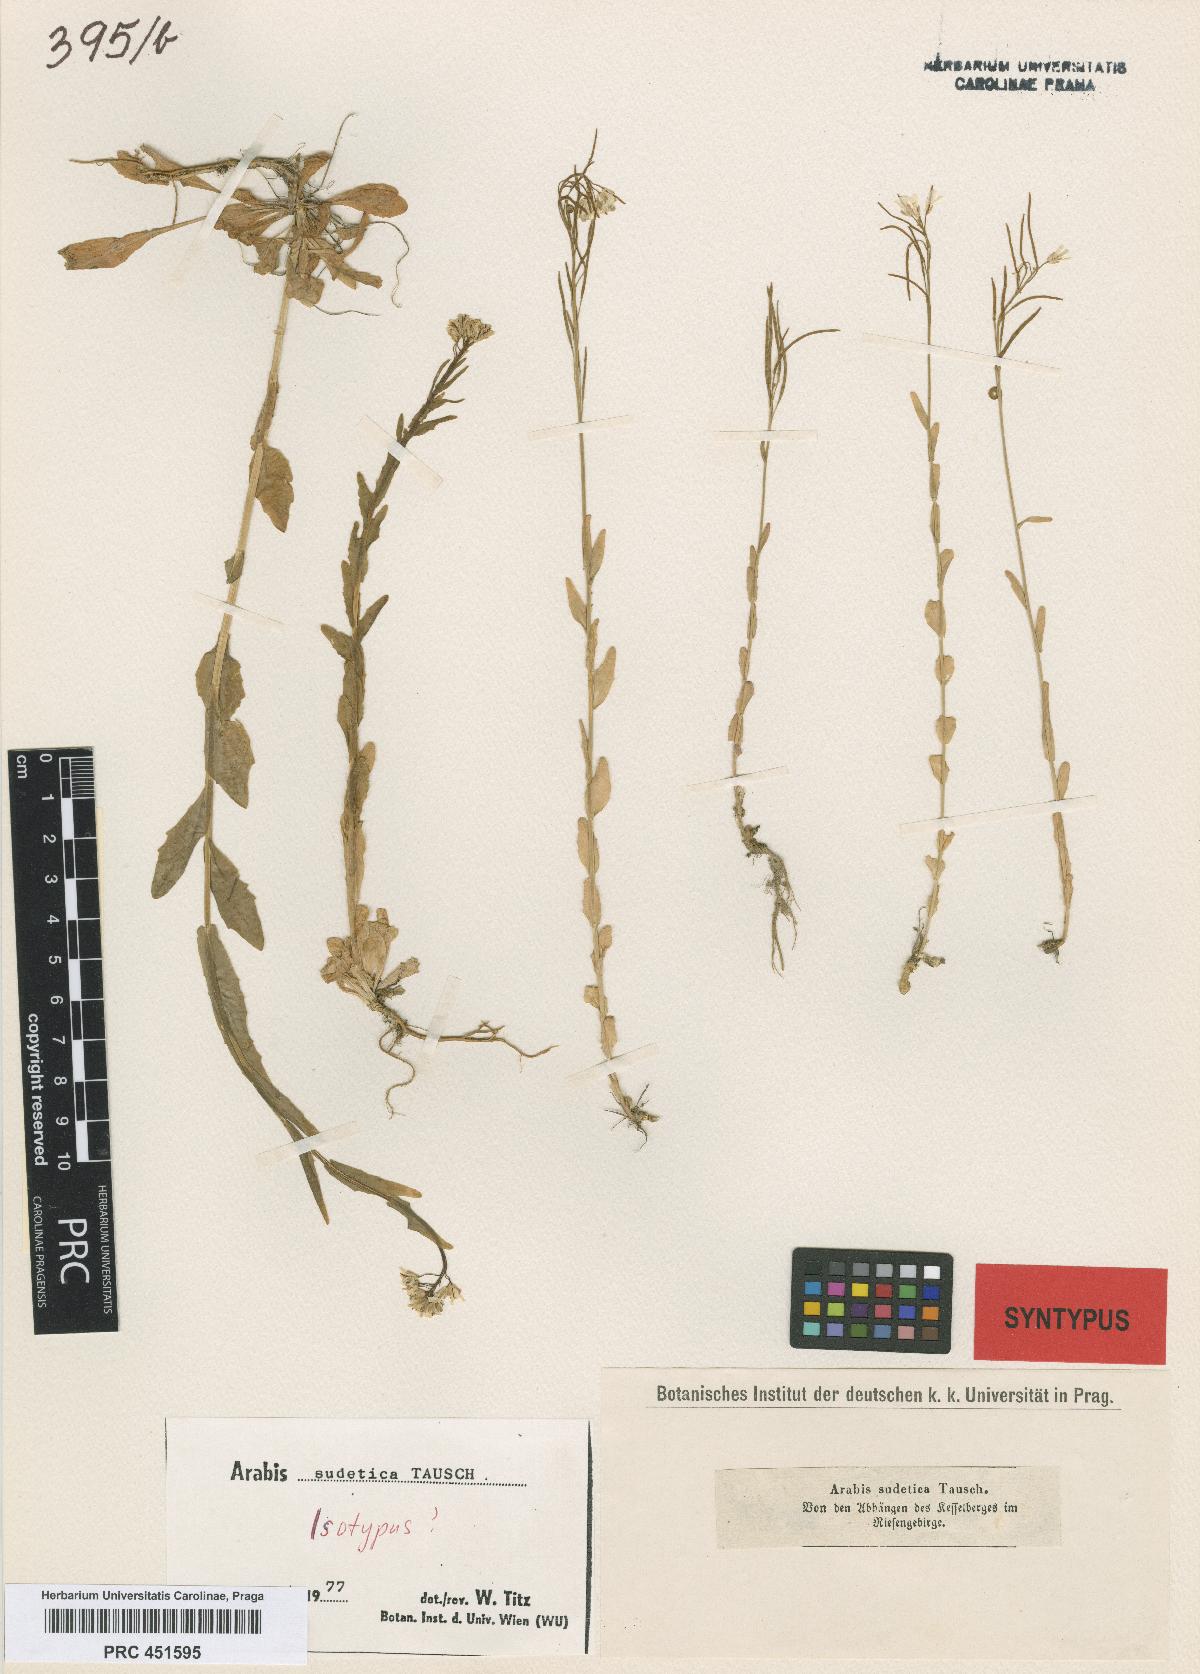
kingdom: Plantae
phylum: Tracheophyta
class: Magnoliopsida
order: Brassicales
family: Brassicaceae
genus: Arabis
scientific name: Arabis sudetica
